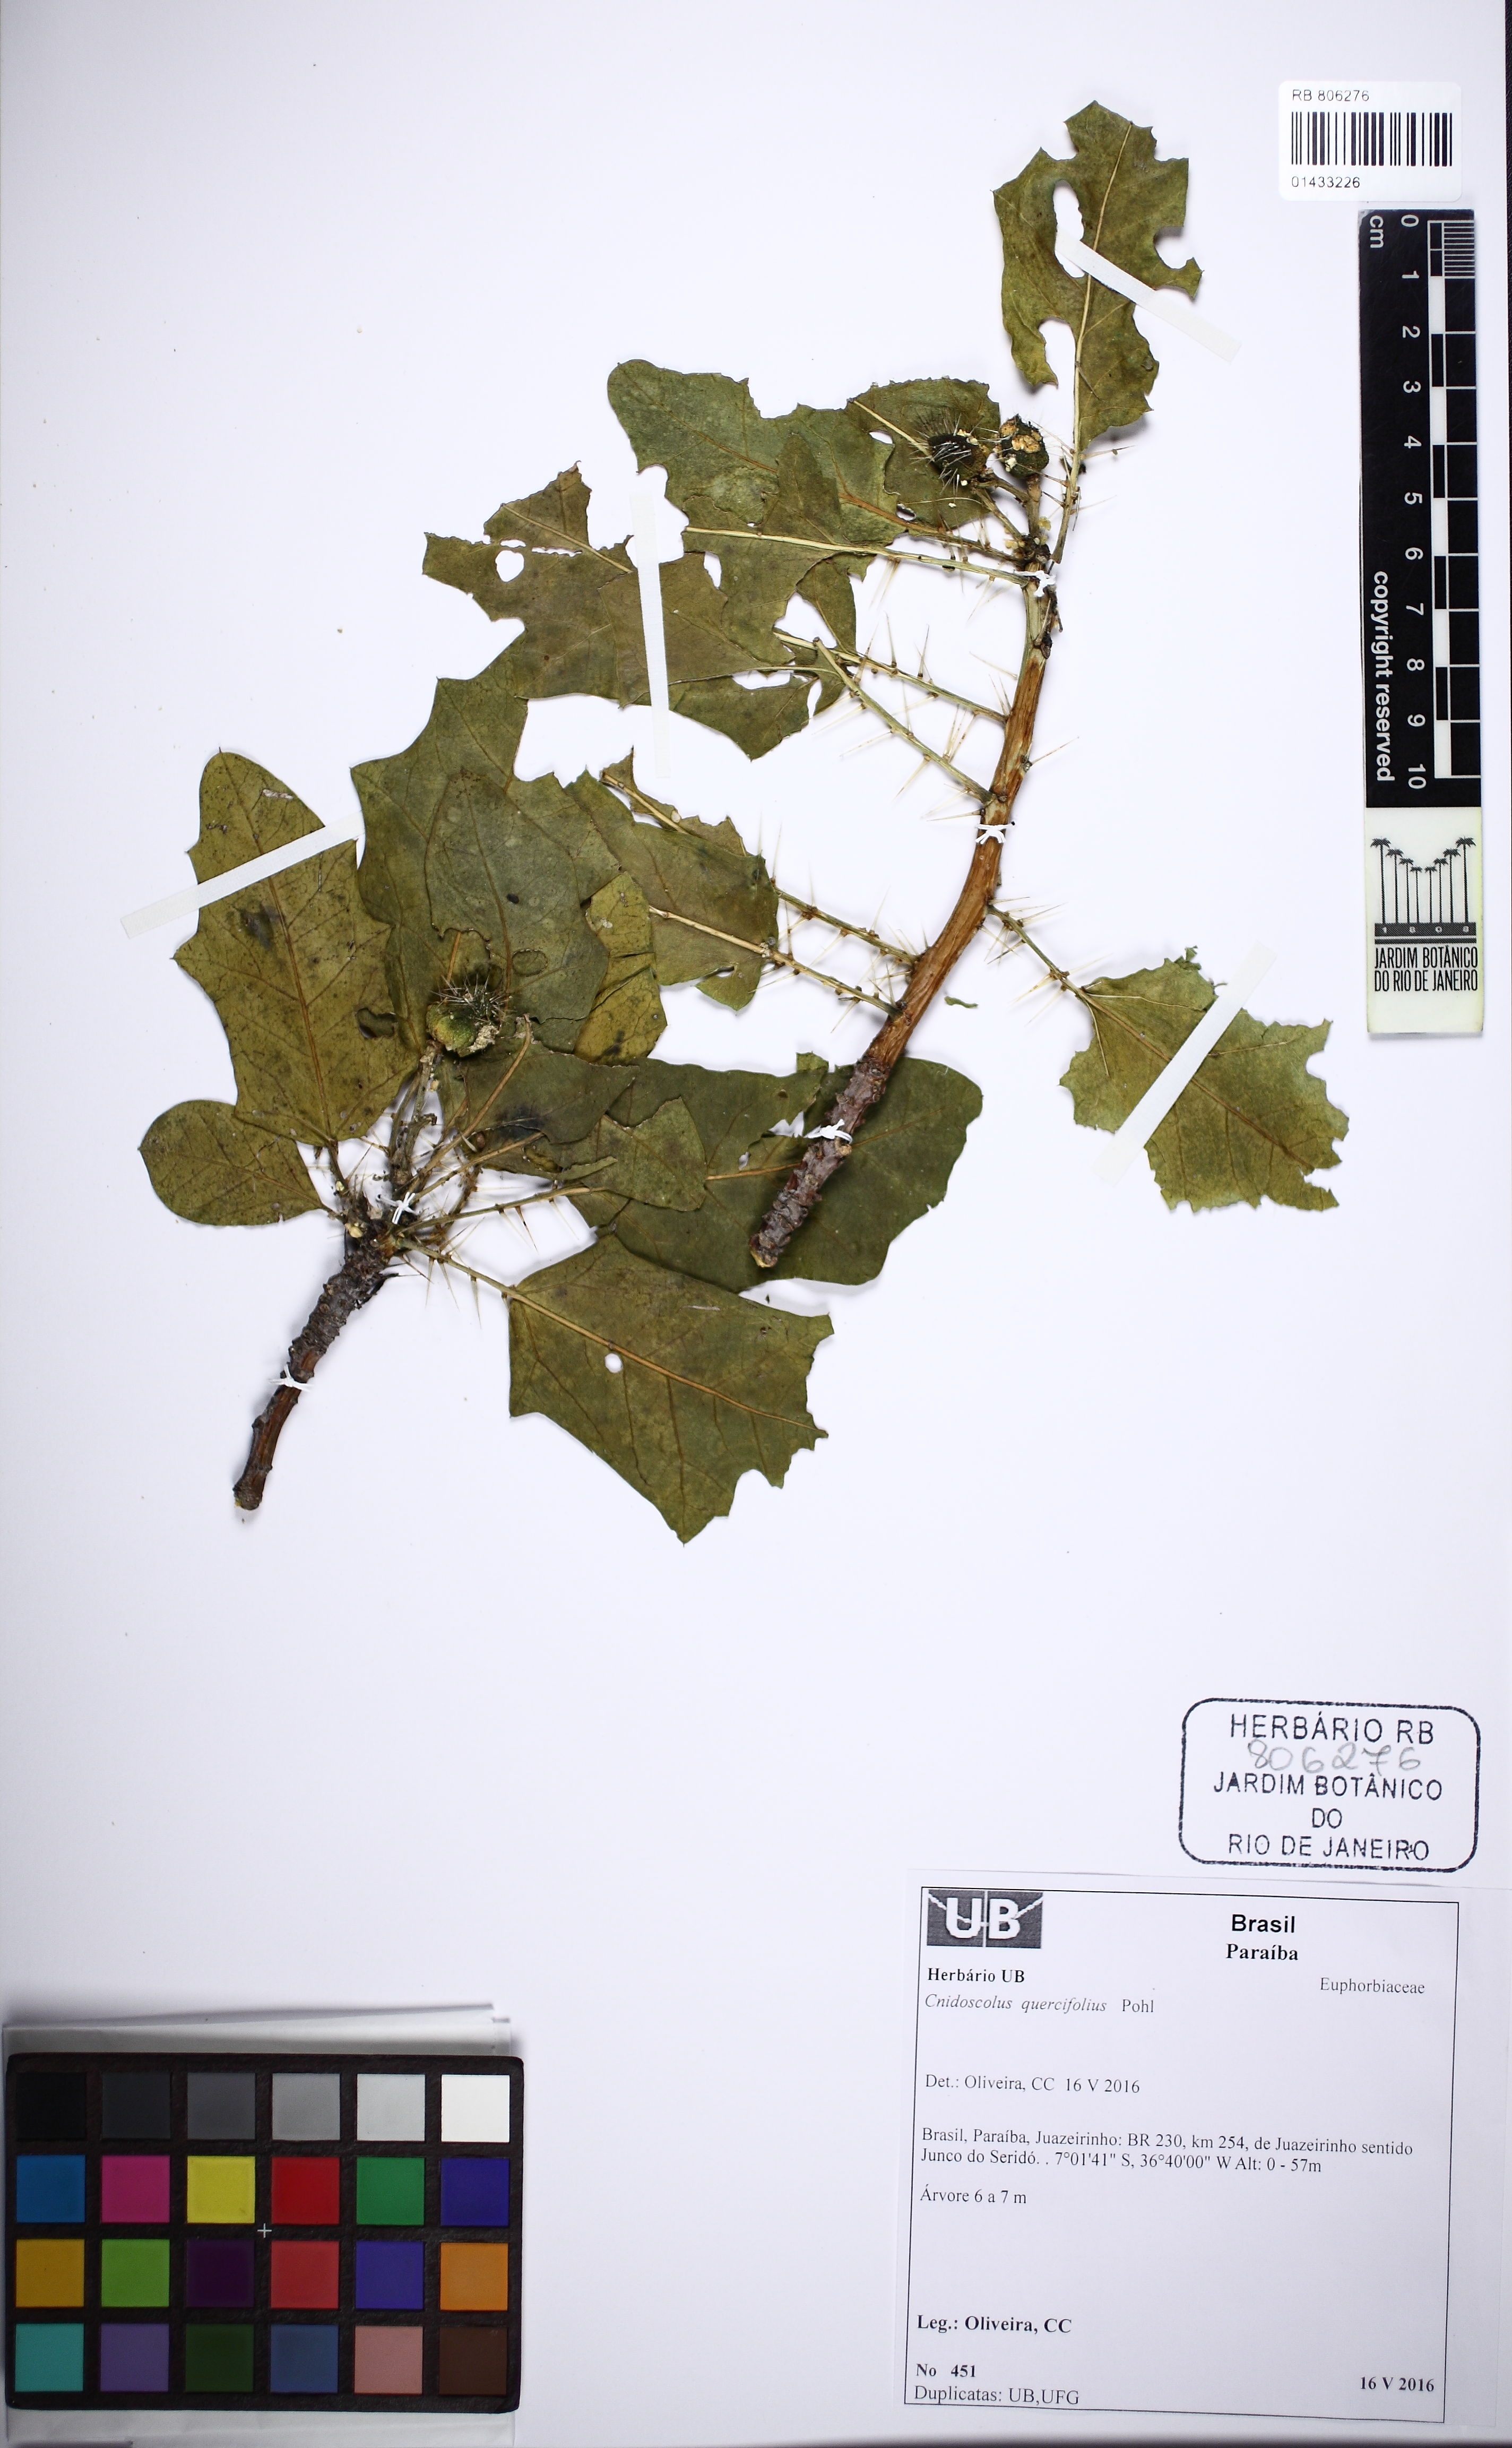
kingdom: Plantae
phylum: Tracheophyta
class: Magnoliopsida
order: Malpighiales
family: Euphorbiaceae
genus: Cnidoscolus
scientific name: Cnidoscolus quercifolius
